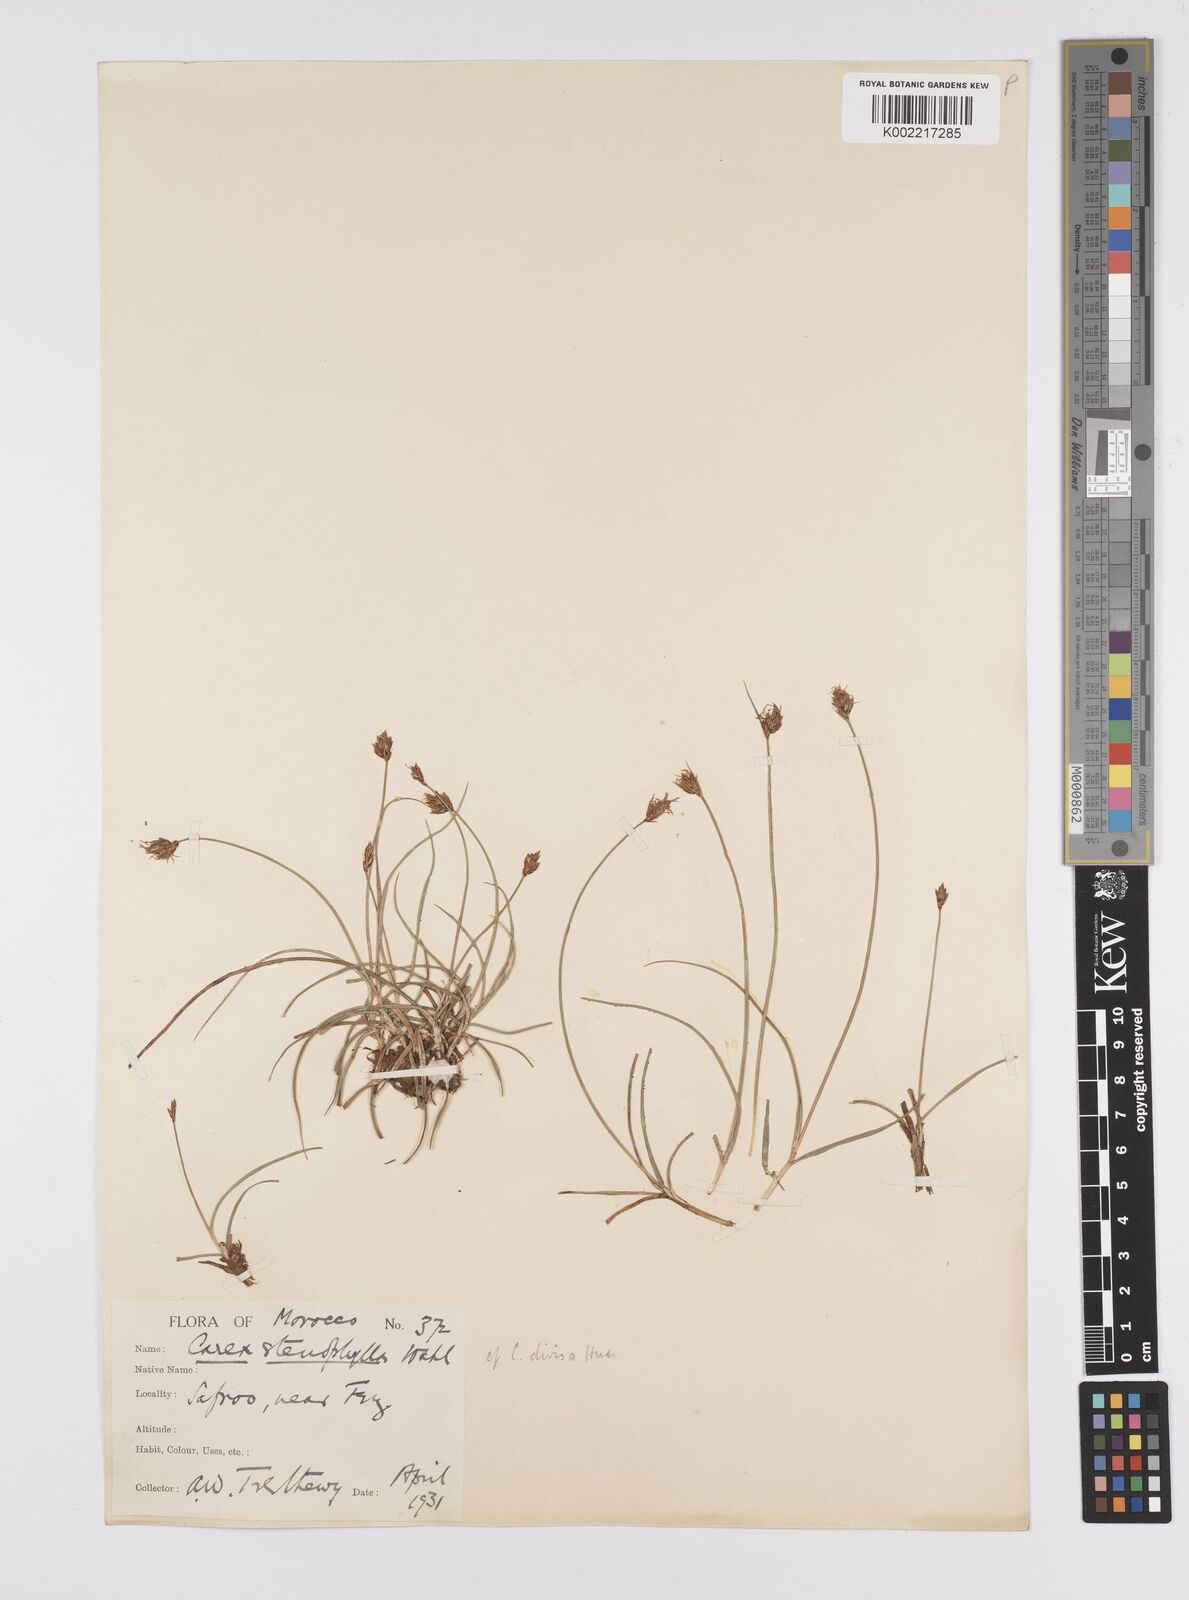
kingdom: Plantae
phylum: Tracheophyta
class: Liliopsida
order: Poales
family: Cyperaceae
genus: Carex
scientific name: Carex divisa
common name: Divided sedge
